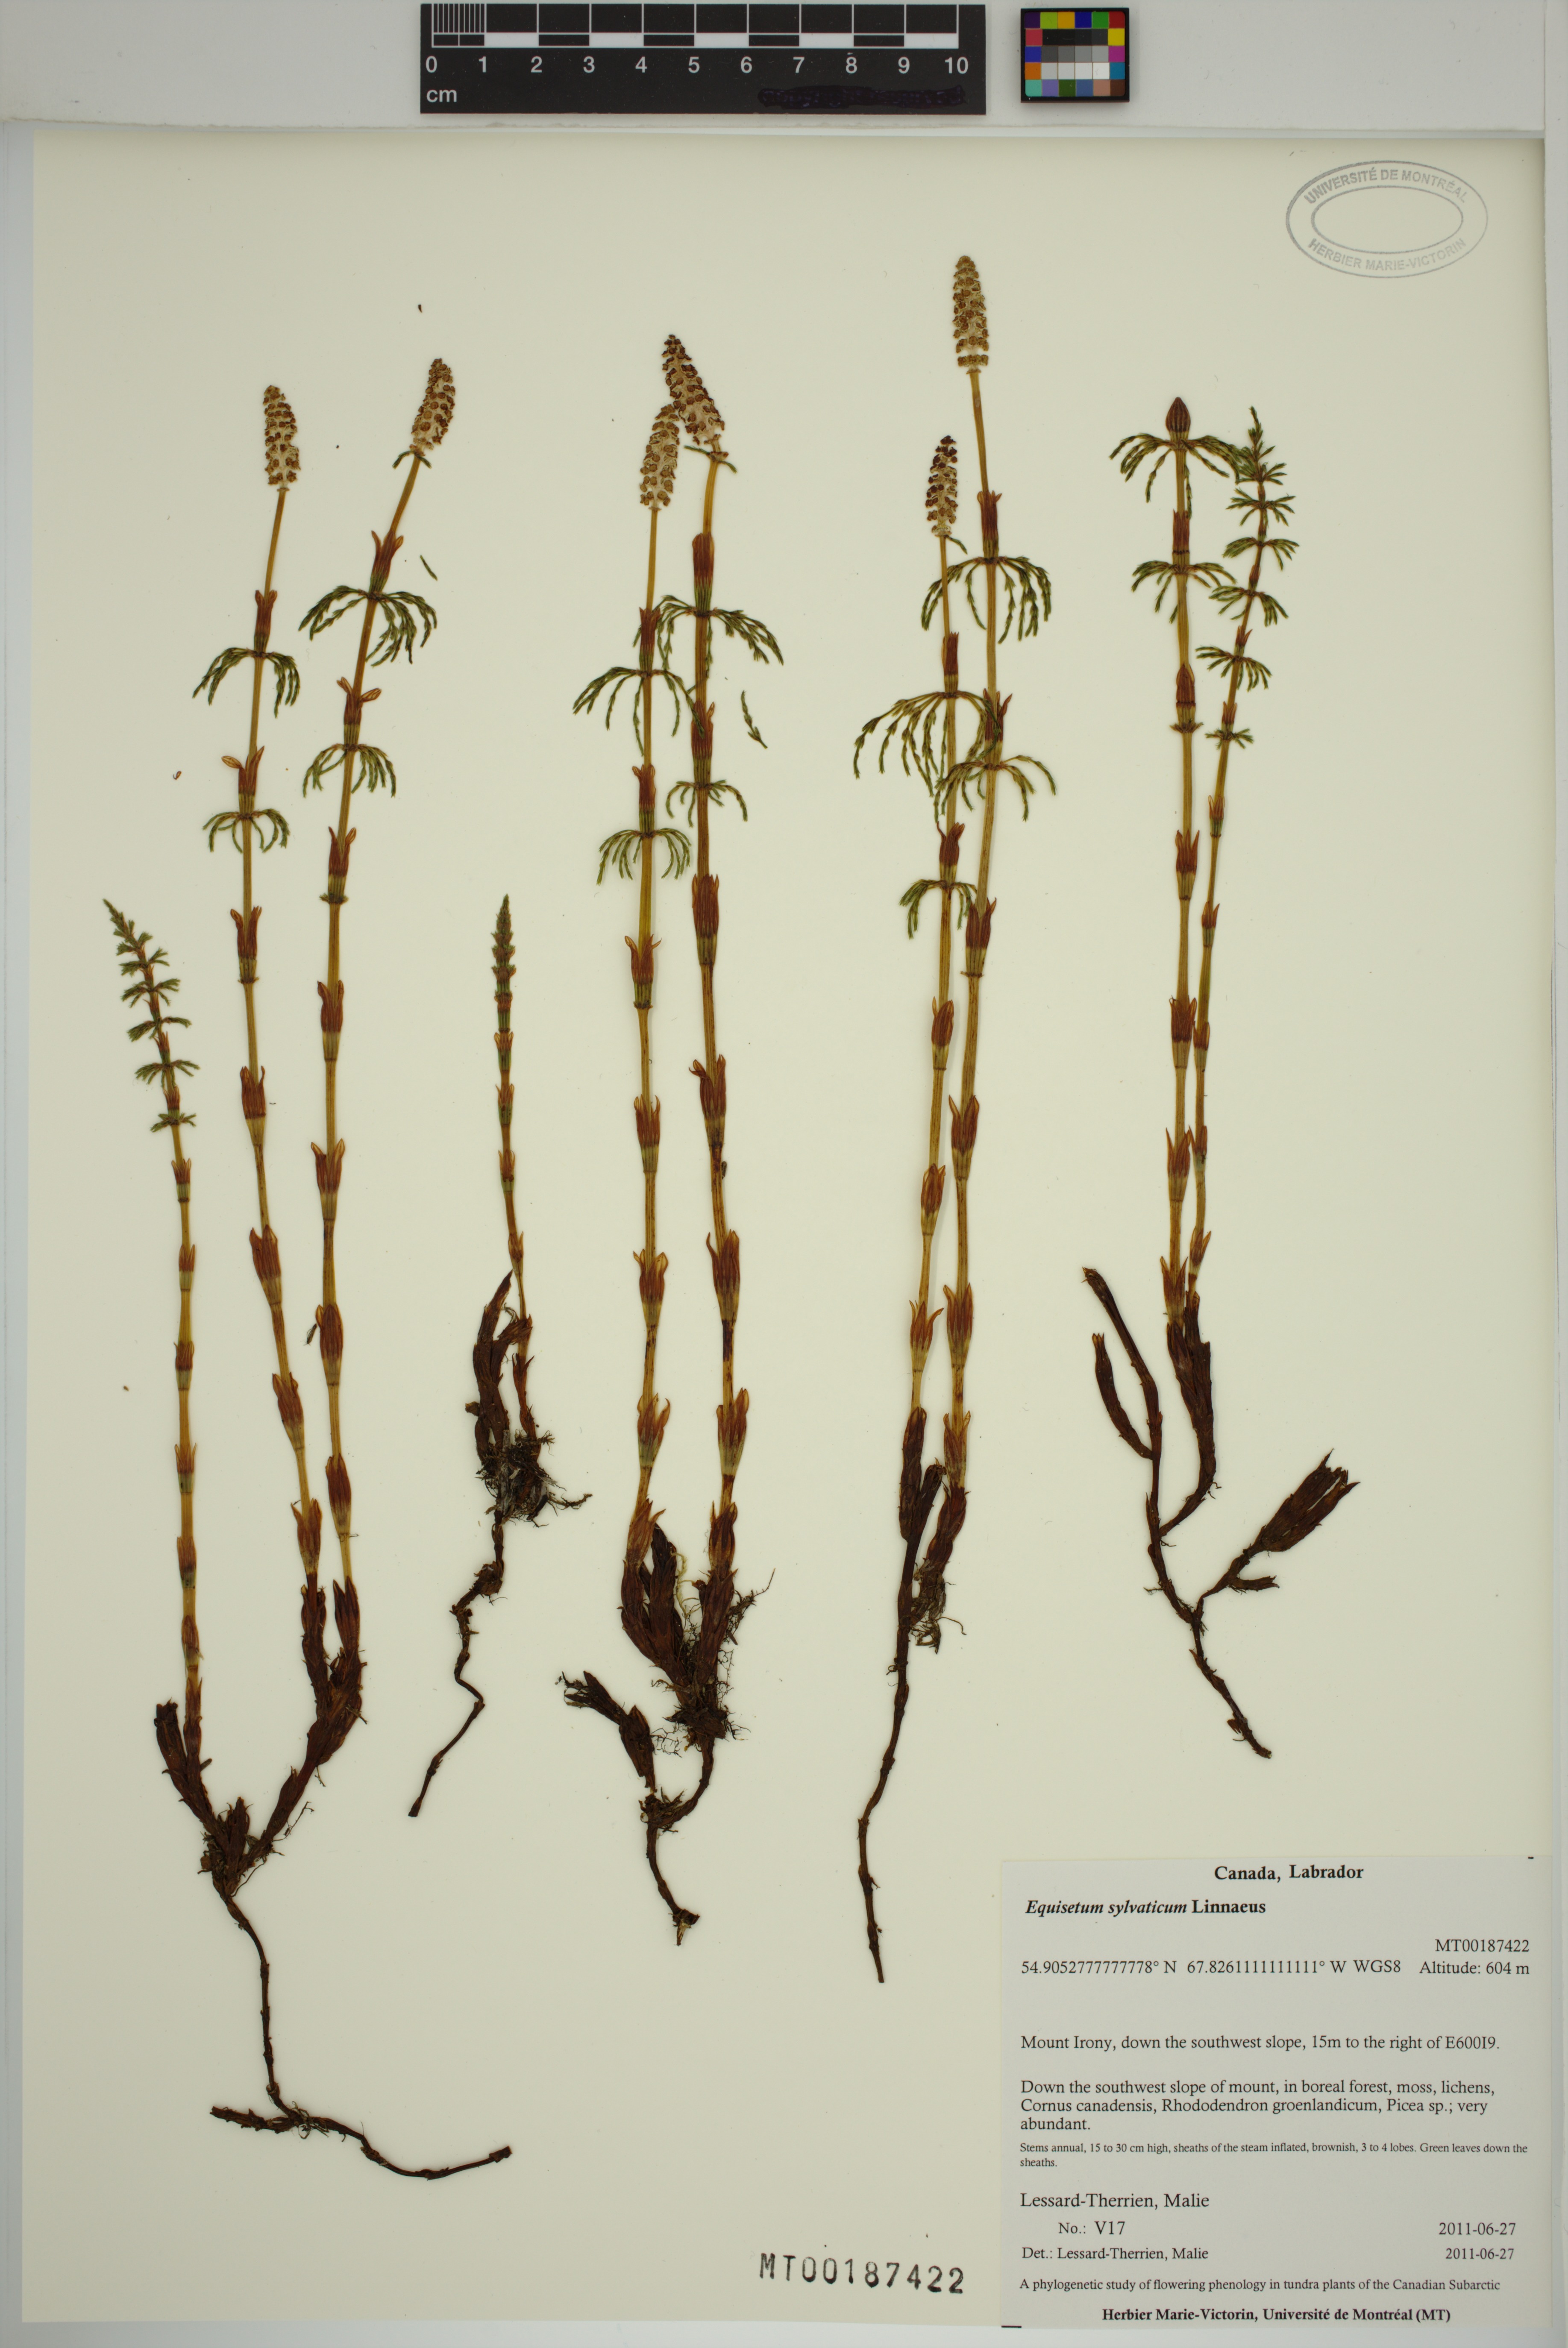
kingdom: Plantae
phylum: Tracheophyta
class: Polypodiopsida
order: Equisetales
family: Equisetaceae
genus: Equisetum
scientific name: Equisetum sylvaticum
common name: Wood horsetail
